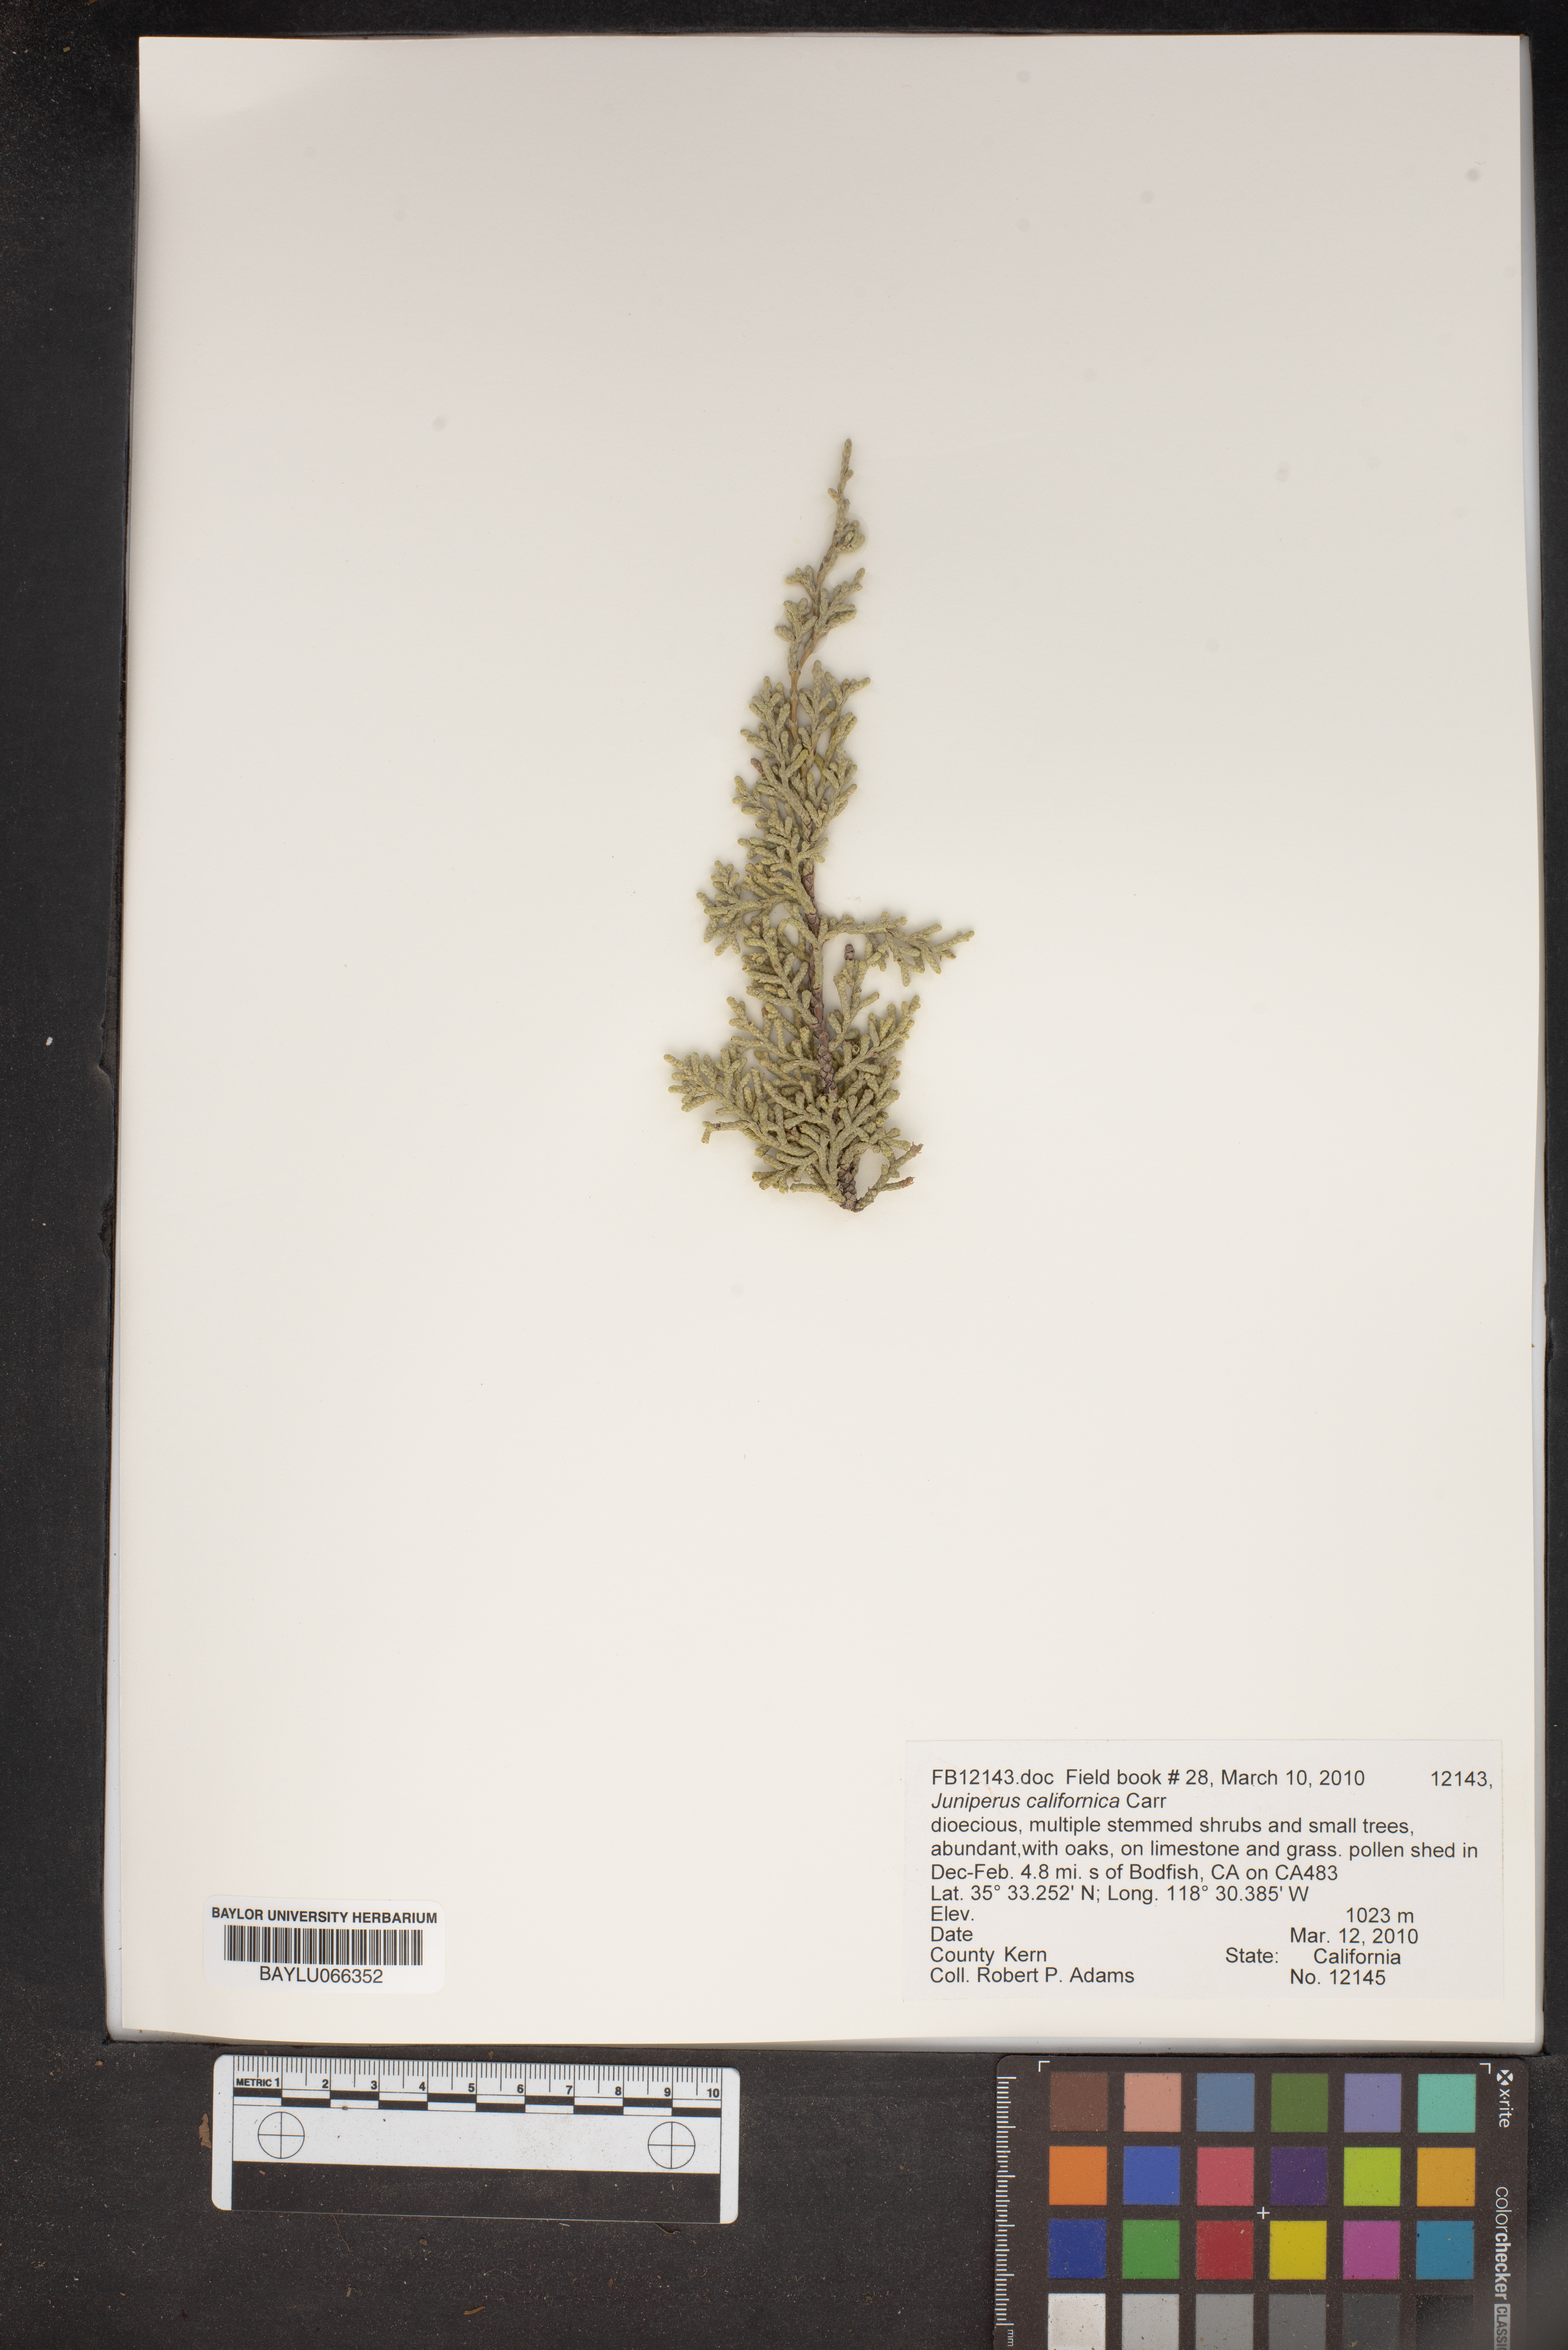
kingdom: Plantae
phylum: Tracheophyta
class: Pinopsida
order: Pinales
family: Cupressaceae
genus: Juniperus
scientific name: Juniperus californica
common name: California juniper
